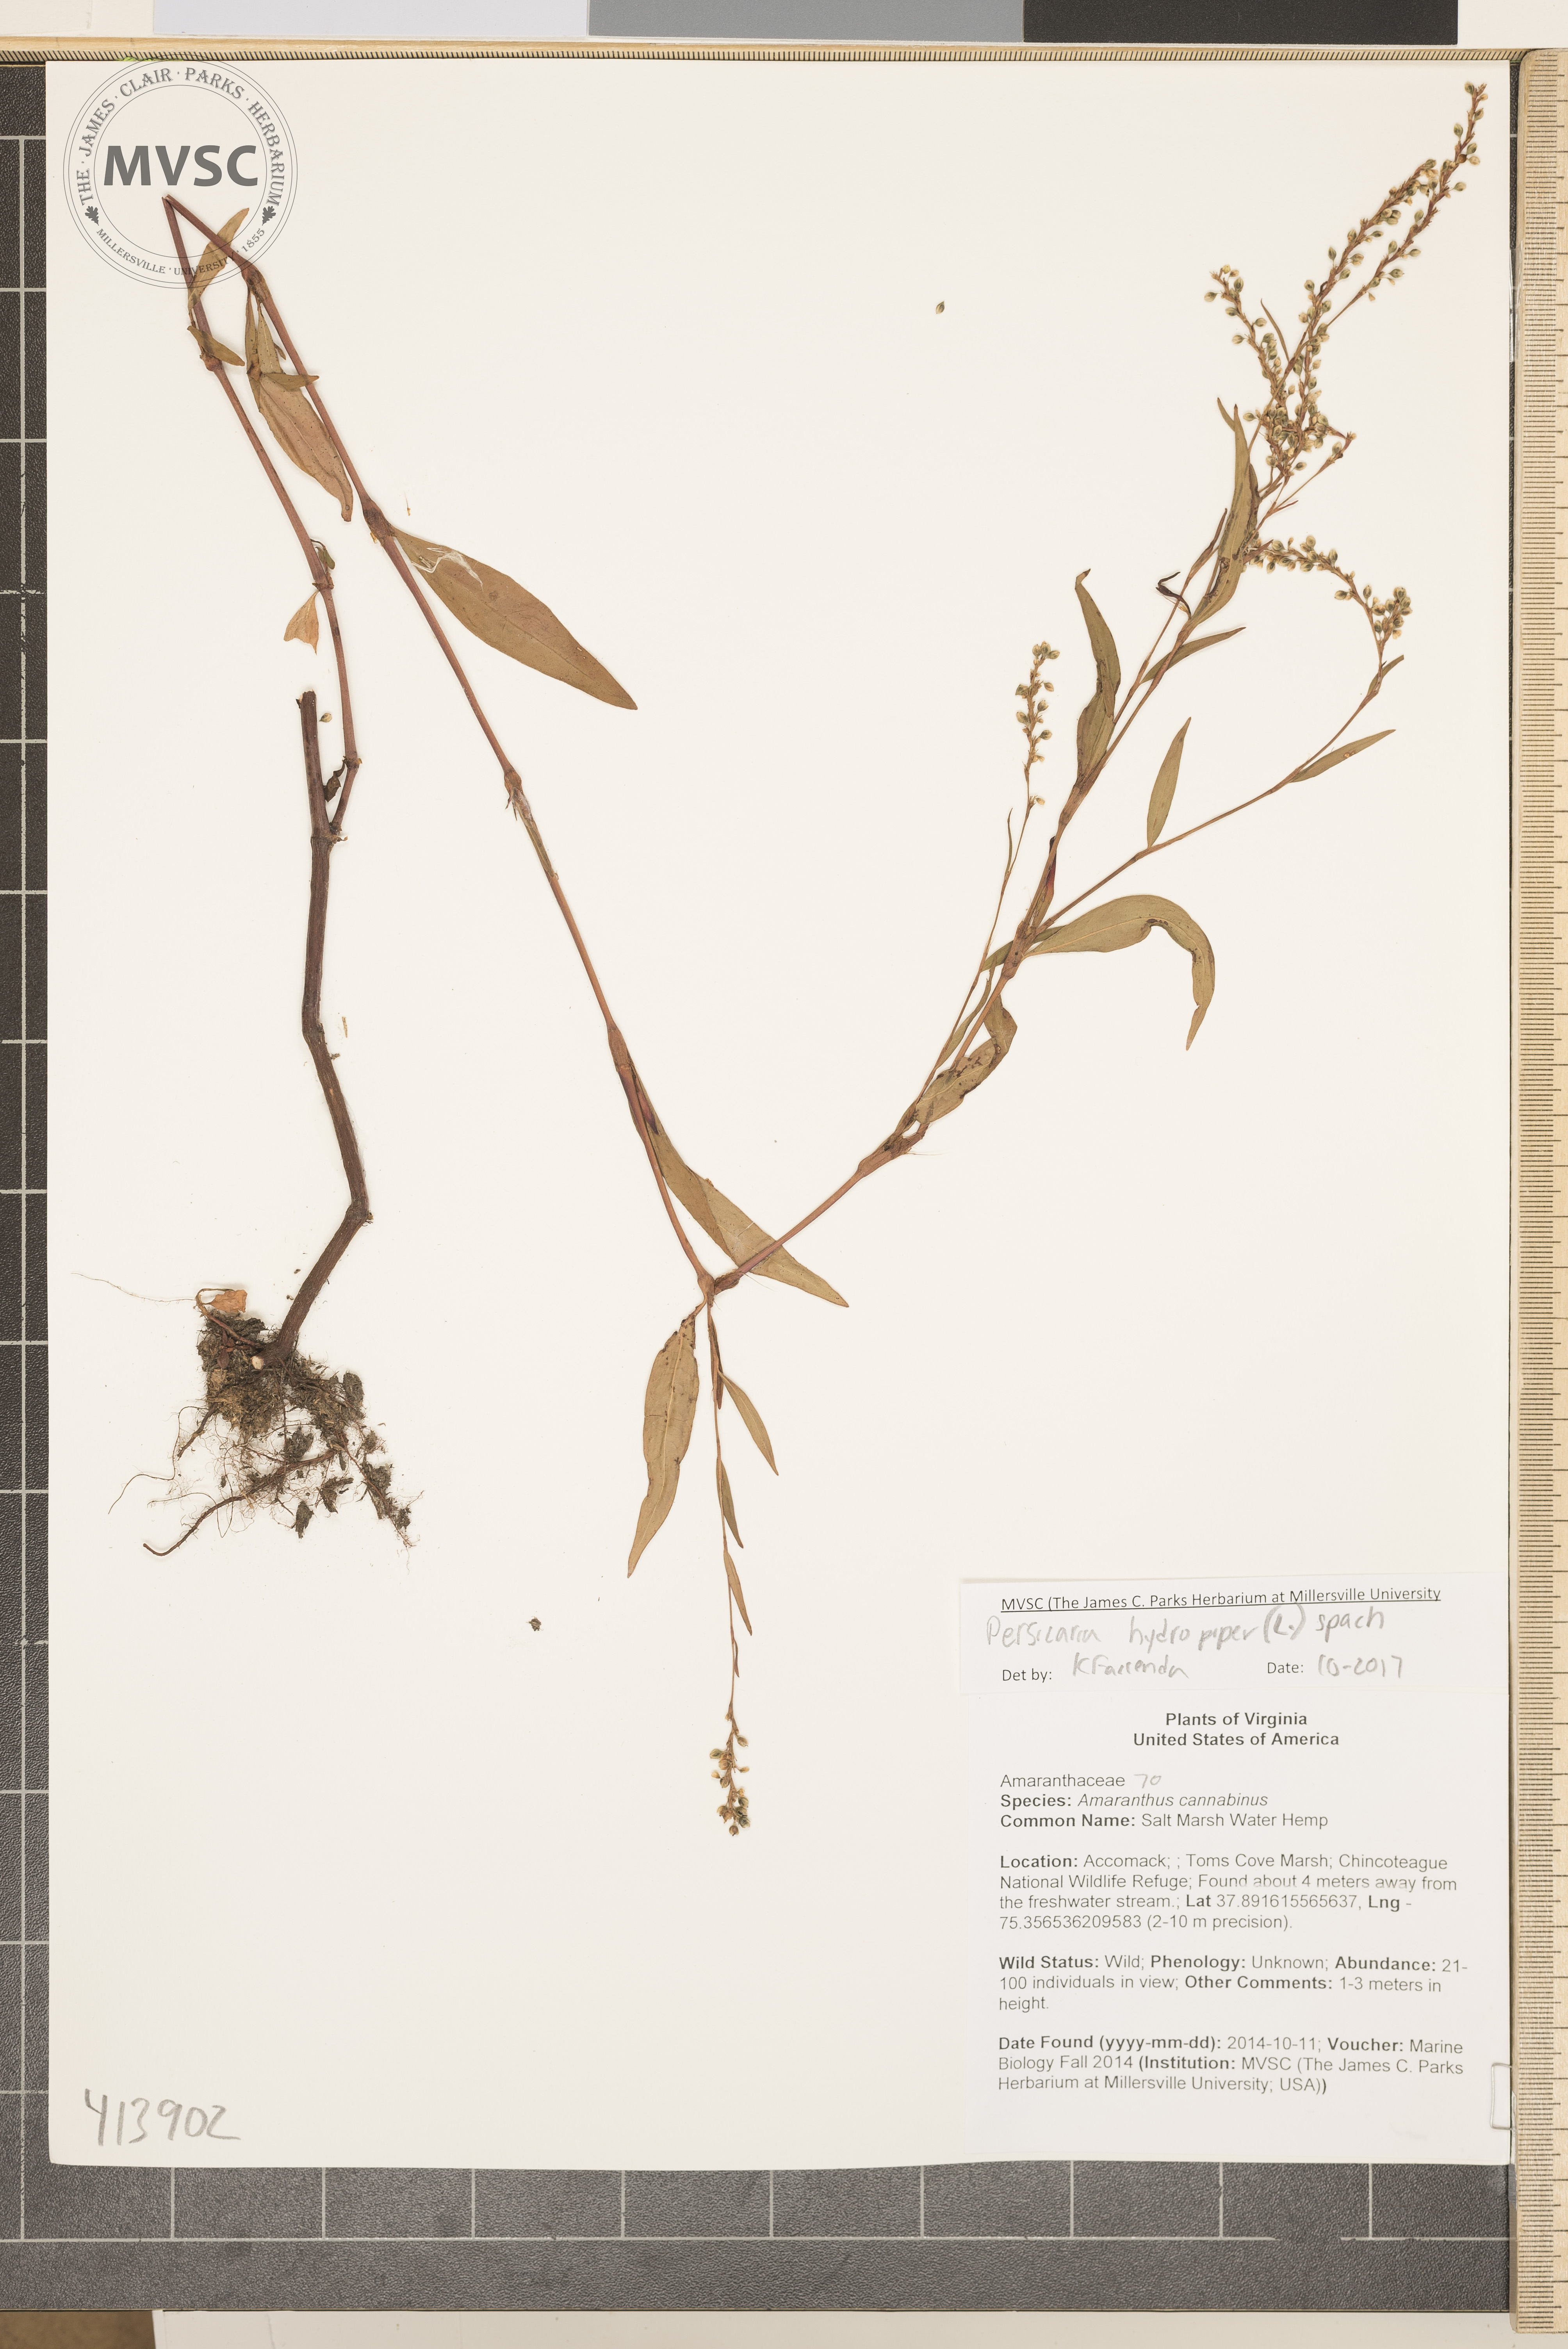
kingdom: Plantae
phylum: Tracheophyta
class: Magnoliopsida
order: Caryophyllales
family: Polygonaceae
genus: Persicaria
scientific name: Persicaria hydropiper
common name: Water-pepper
